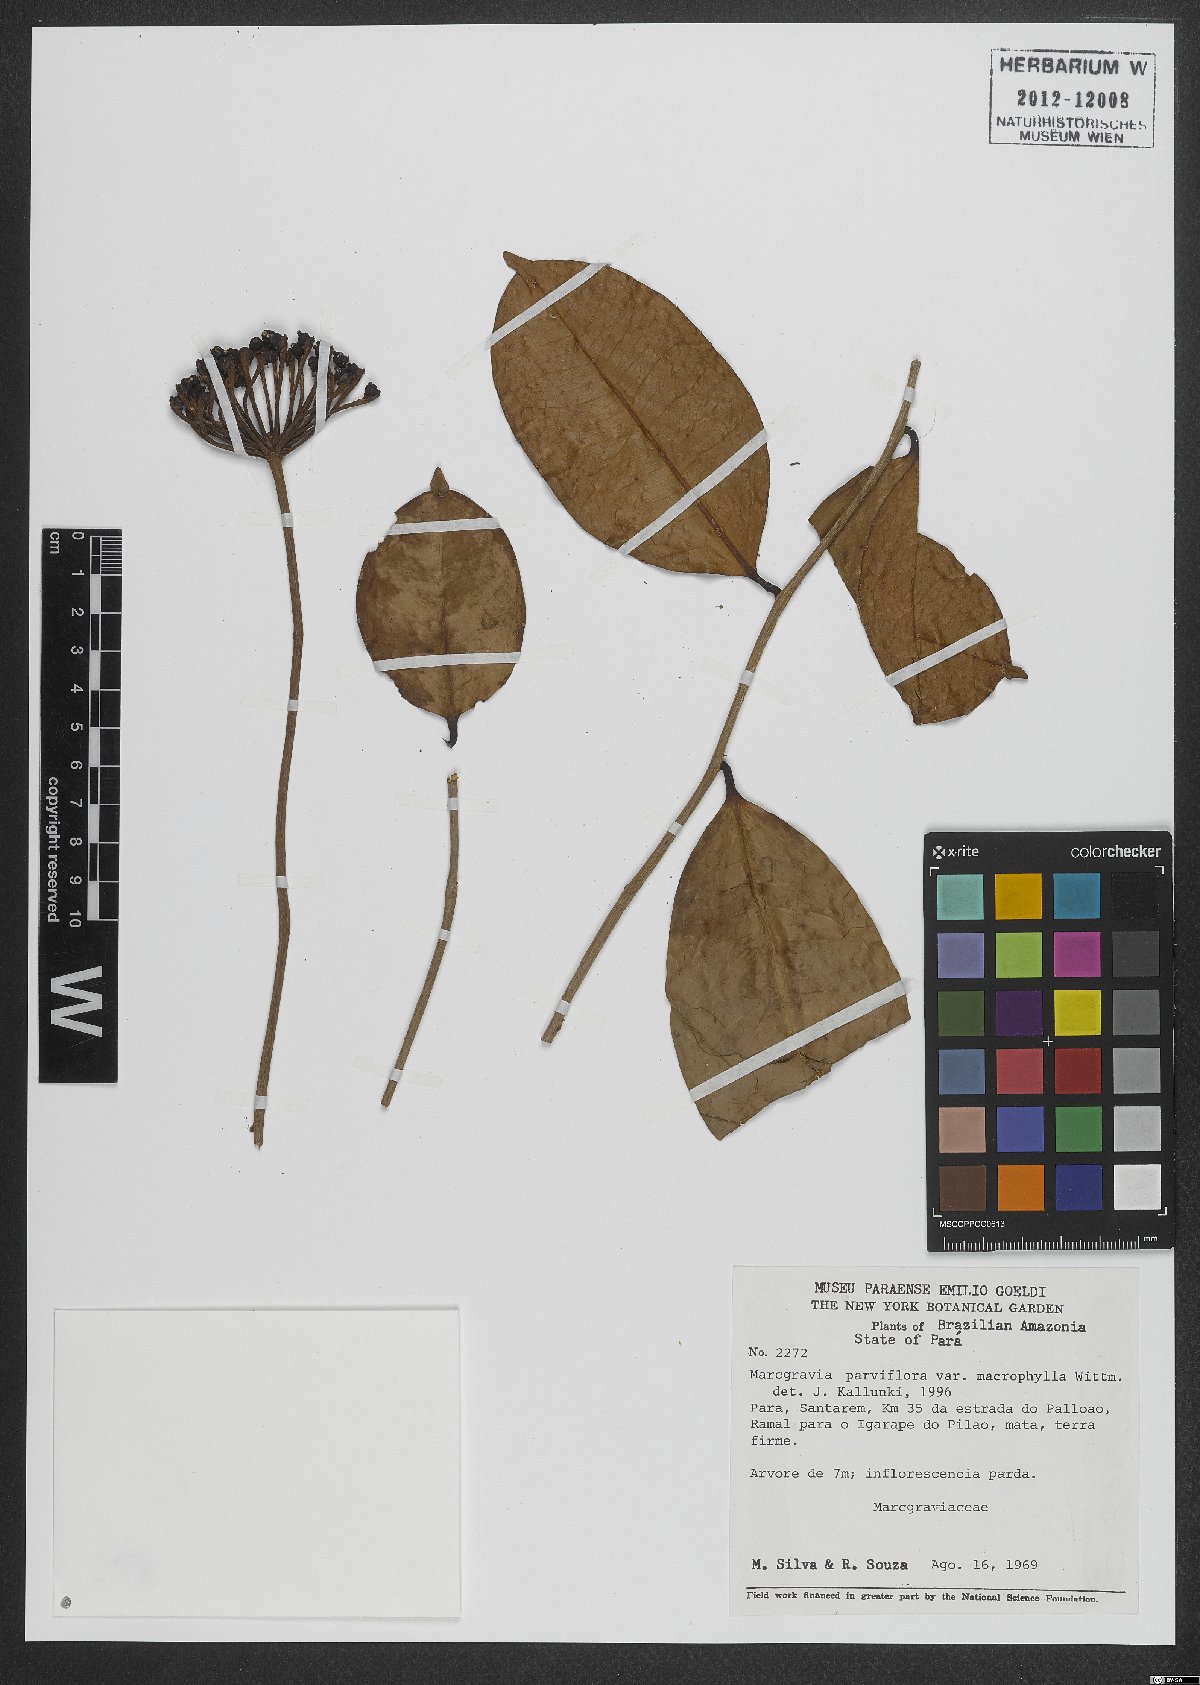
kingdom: Plantae
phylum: Tracheophyta
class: Magnoliopsida
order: Ericales
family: Marcgraviaceae
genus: Marcgravia
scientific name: Marcgravia pedunculosa
